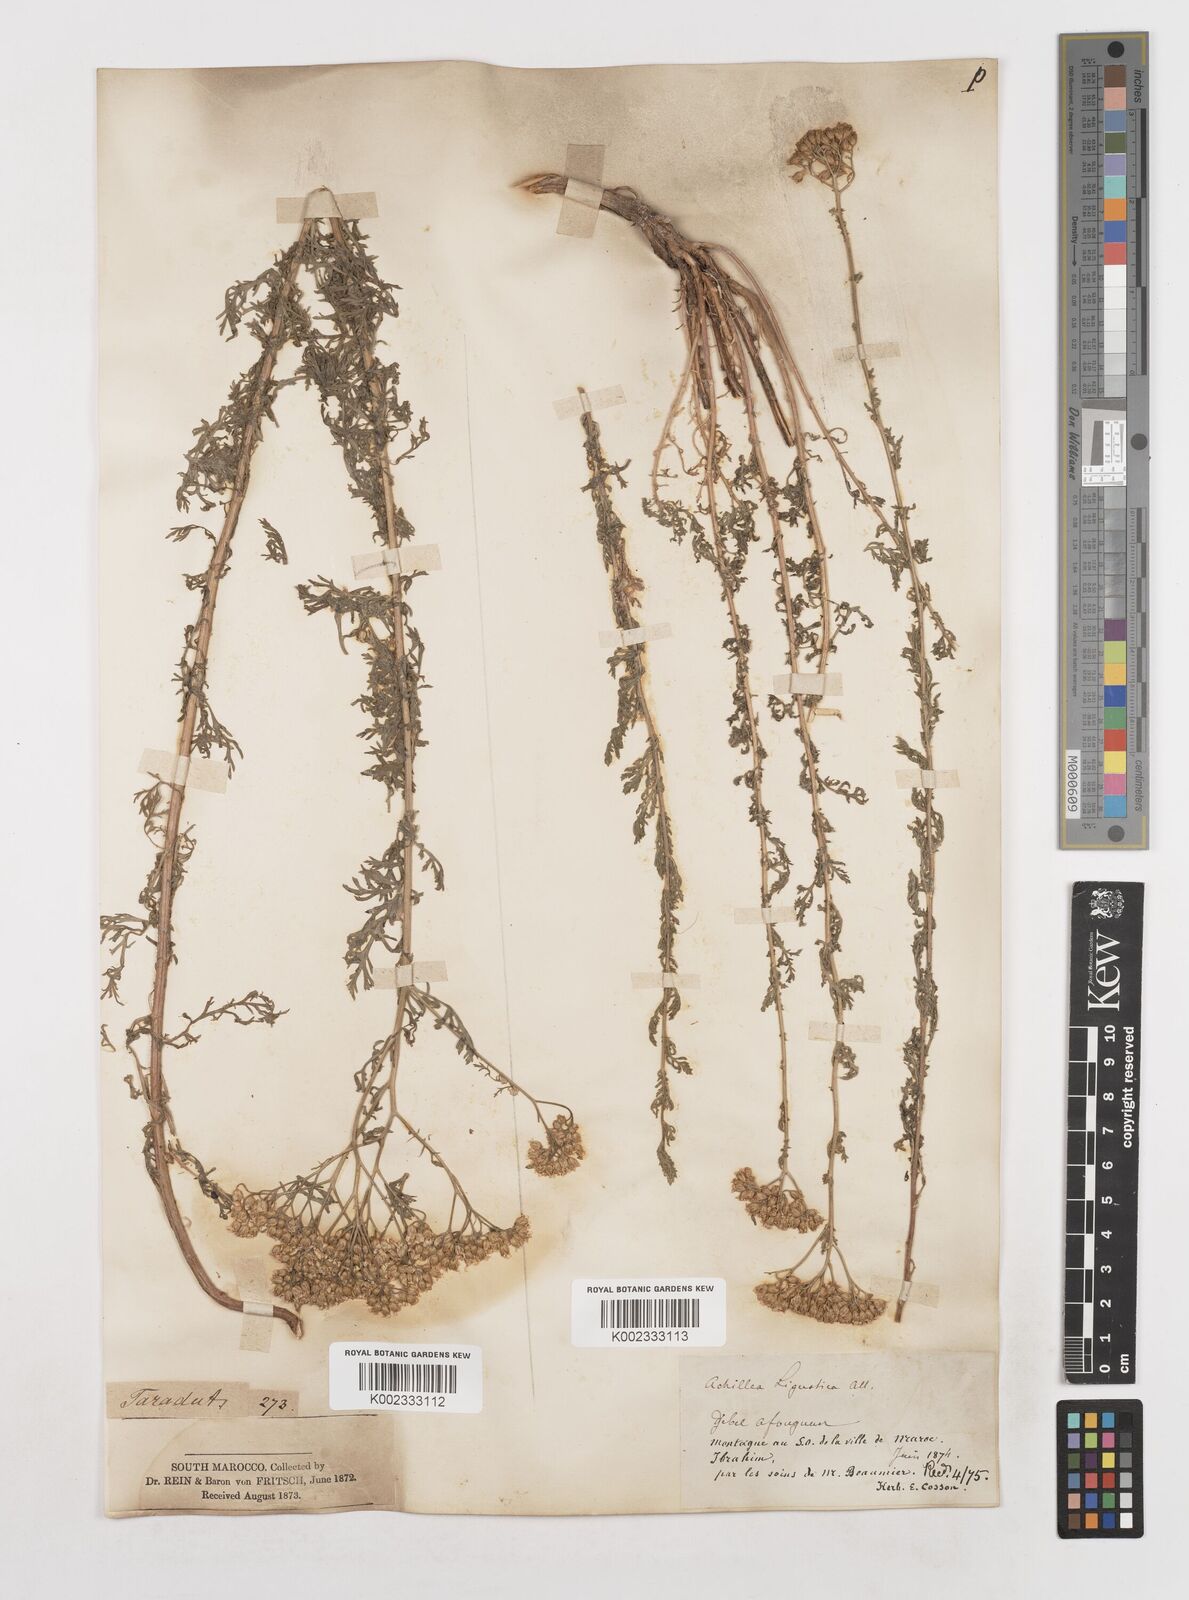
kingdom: Plantae
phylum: Tracheophyta
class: Magnoliopsida
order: Asterales
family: Asteraceae
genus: Achillea
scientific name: Achillea ligustica
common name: Southern yarrow
